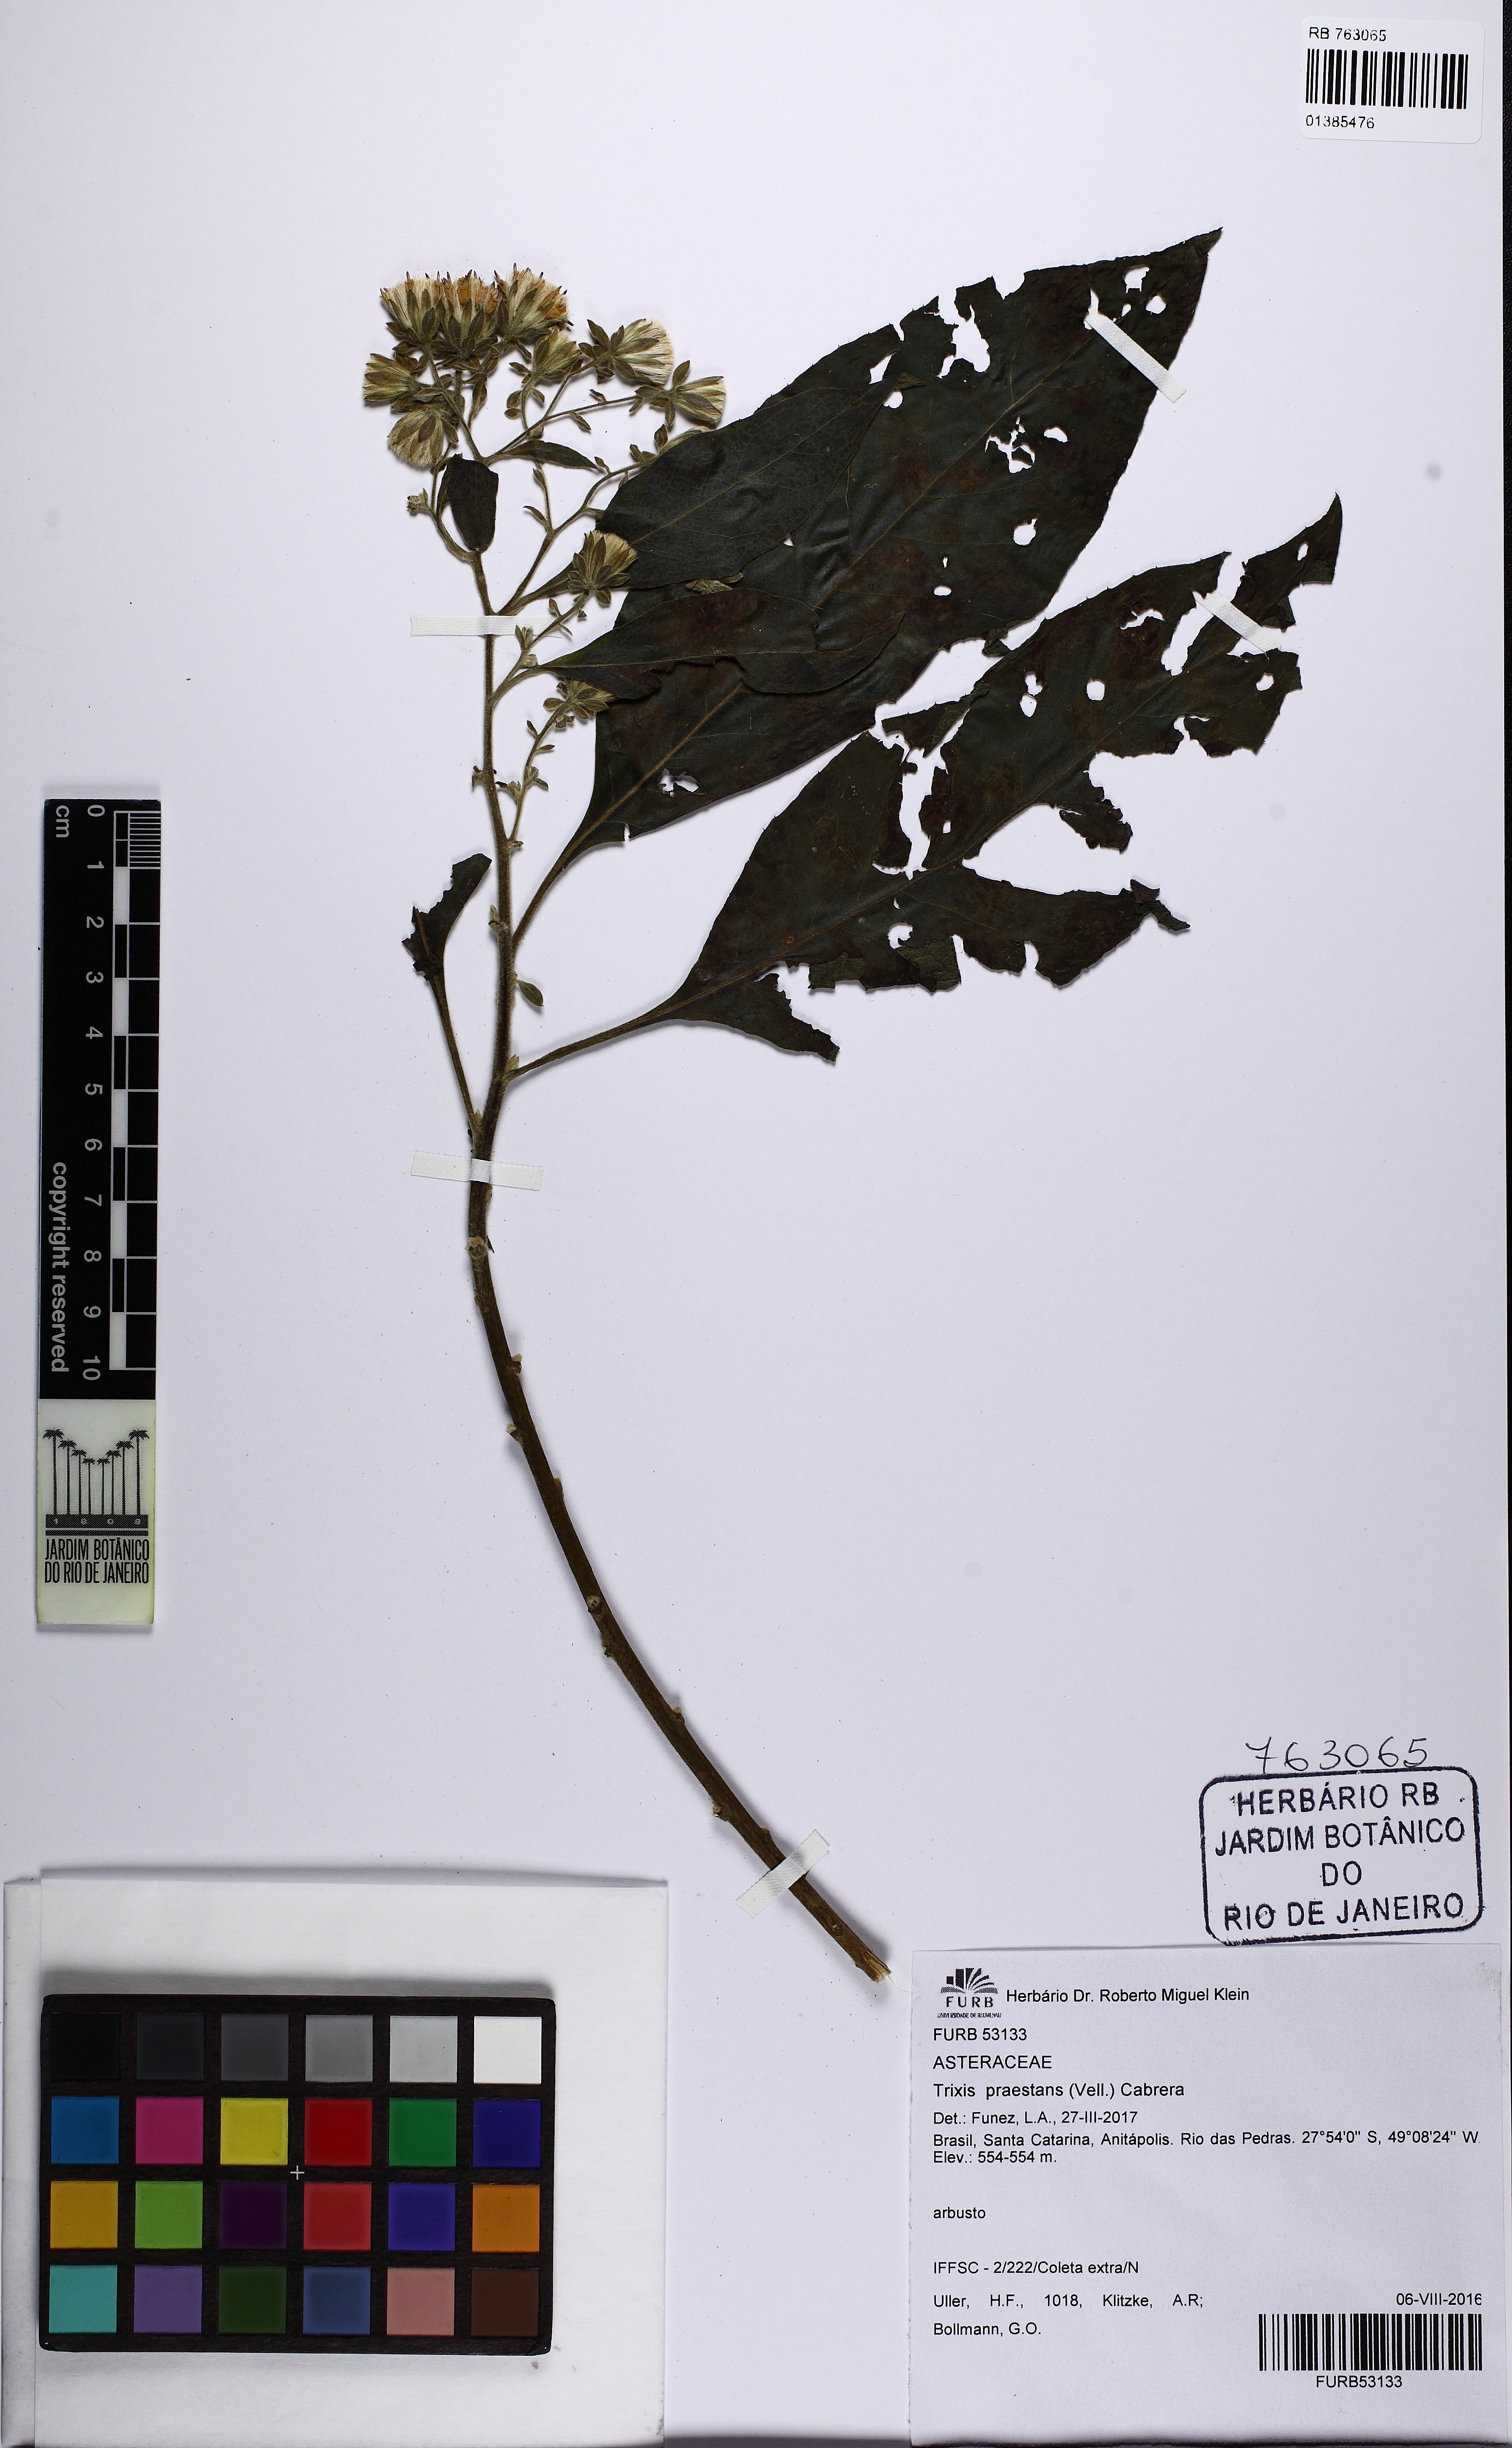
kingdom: Plantae
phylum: Tracheophyta
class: Magnoliopsida
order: Asterales
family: Asteraceae
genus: Trixis
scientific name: Trixis praestans
